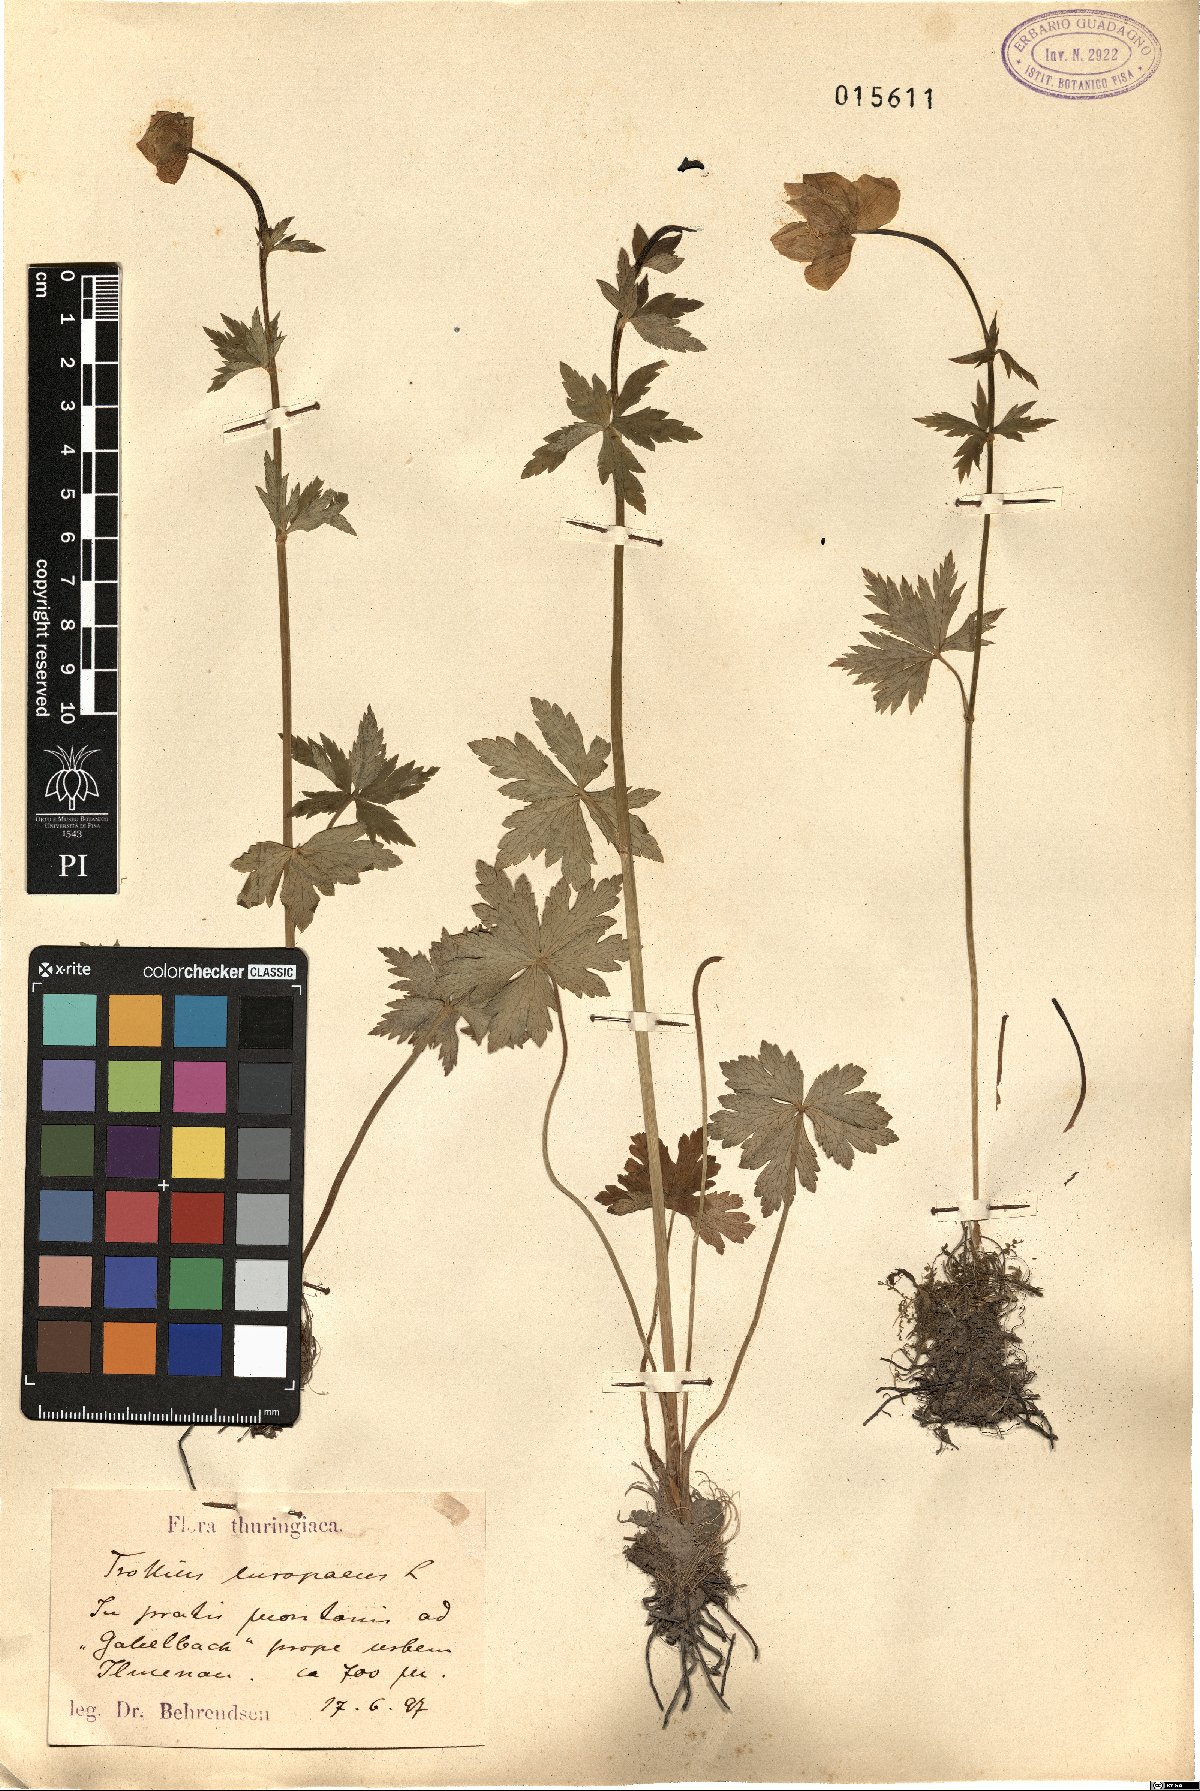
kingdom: Plantae
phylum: Tracheophyta
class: Magnoliopsida
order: Ranunculales
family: Ranunculaceae
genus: Trollius
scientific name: Trollius europaeus
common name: European globeflower
